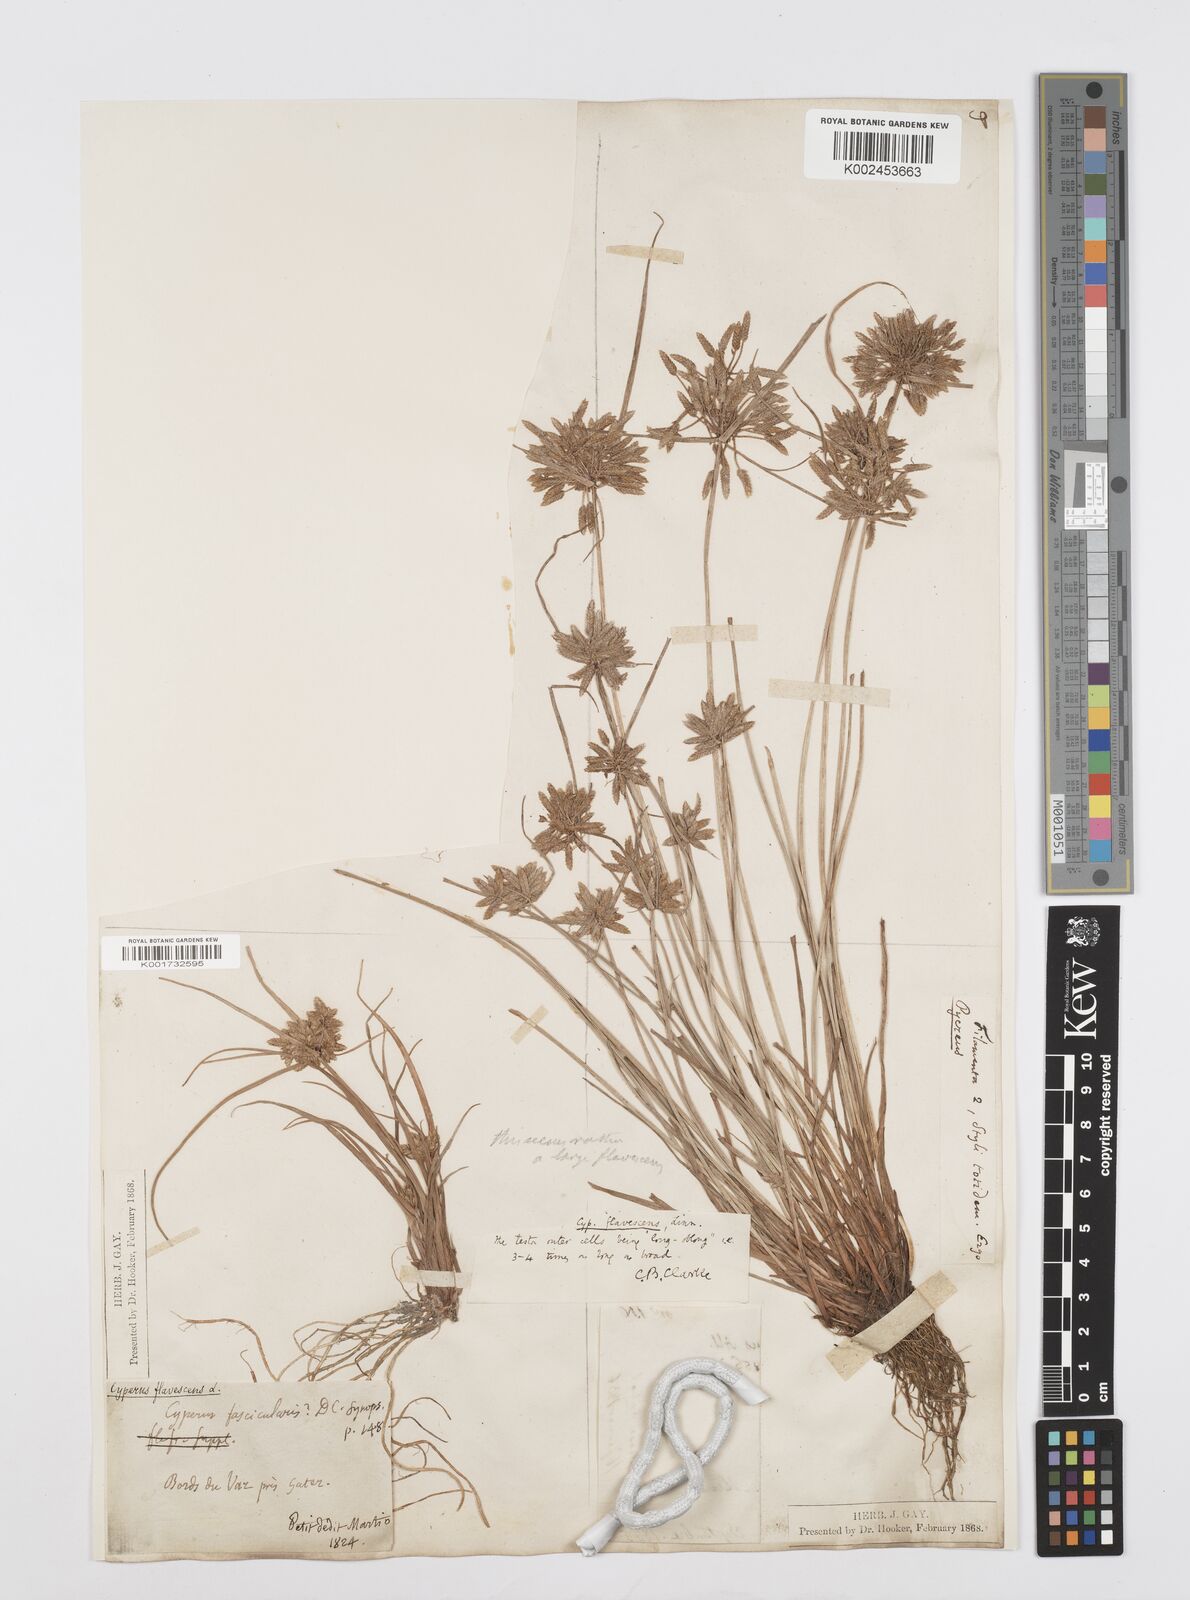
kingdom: Plantae
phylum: Tracheophyta
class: Liliopsida
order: Poales
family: Cyperaceae
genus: Cyperus
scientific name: Cyperus flavescens
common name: Yellow galingale
